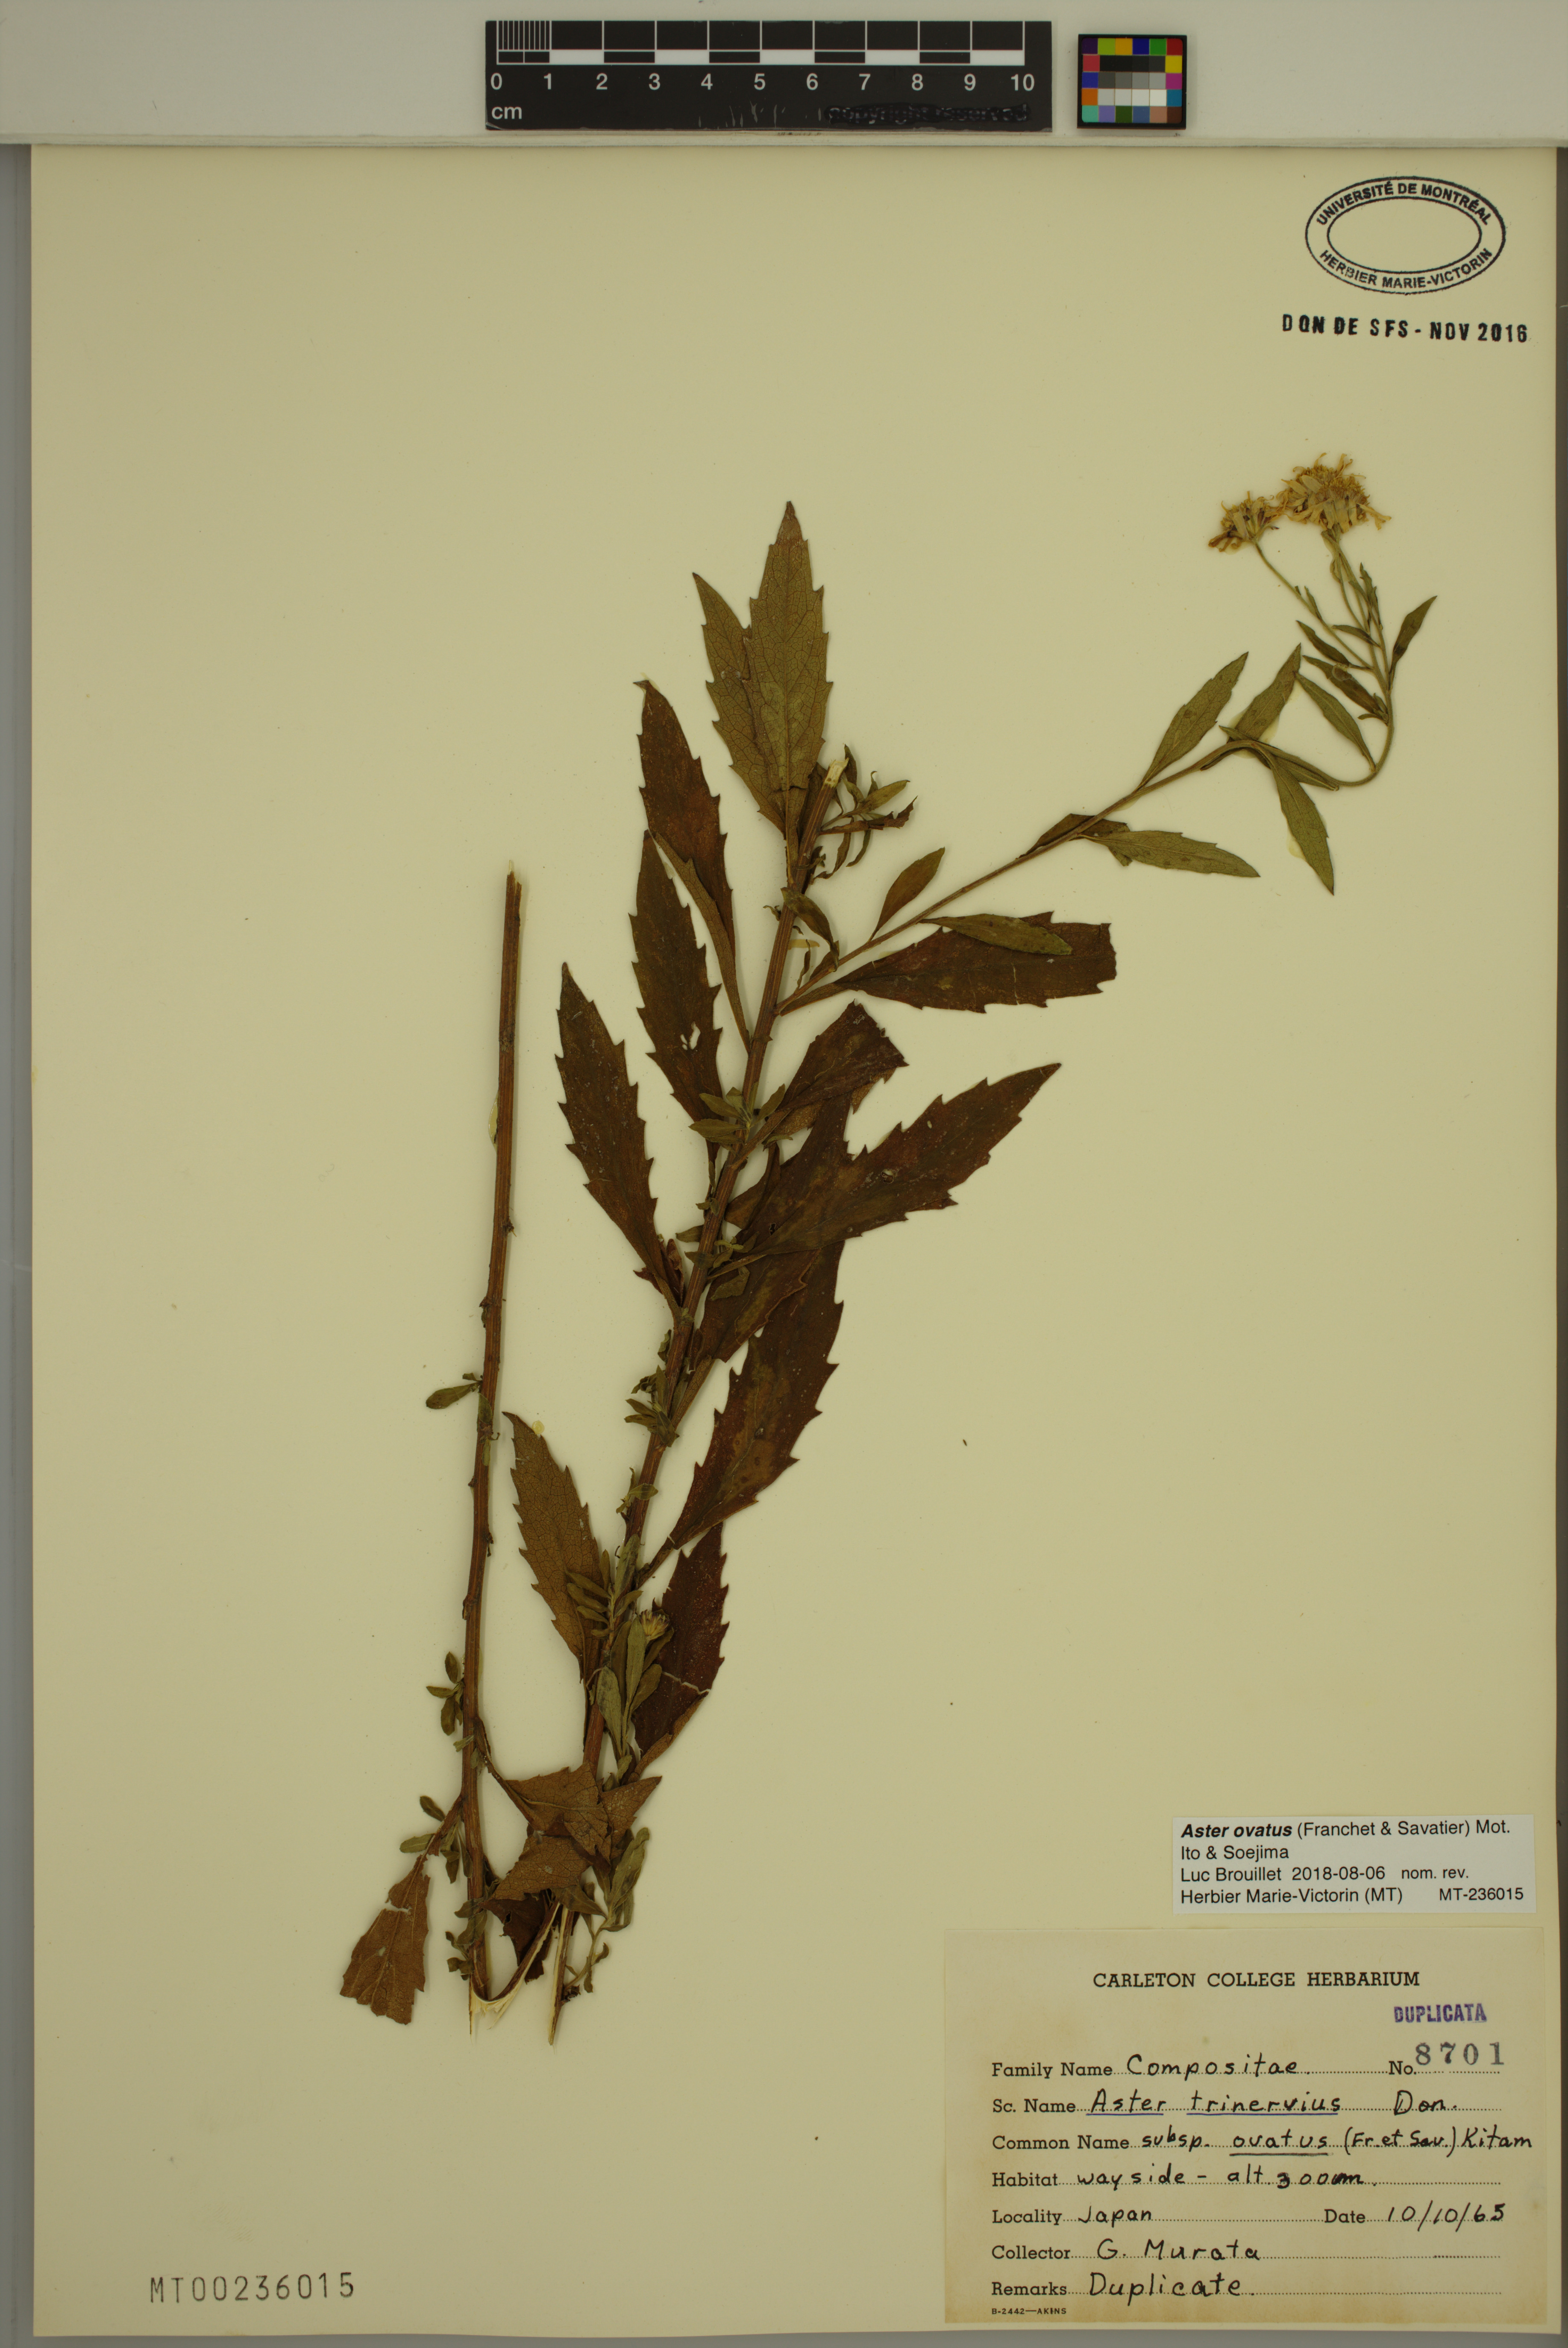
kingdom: Plantae
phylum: Tracheophyta
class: Magnoliopsida
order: Asterales
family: Asteraceae
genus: Aster
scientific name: Aster microcephalus
